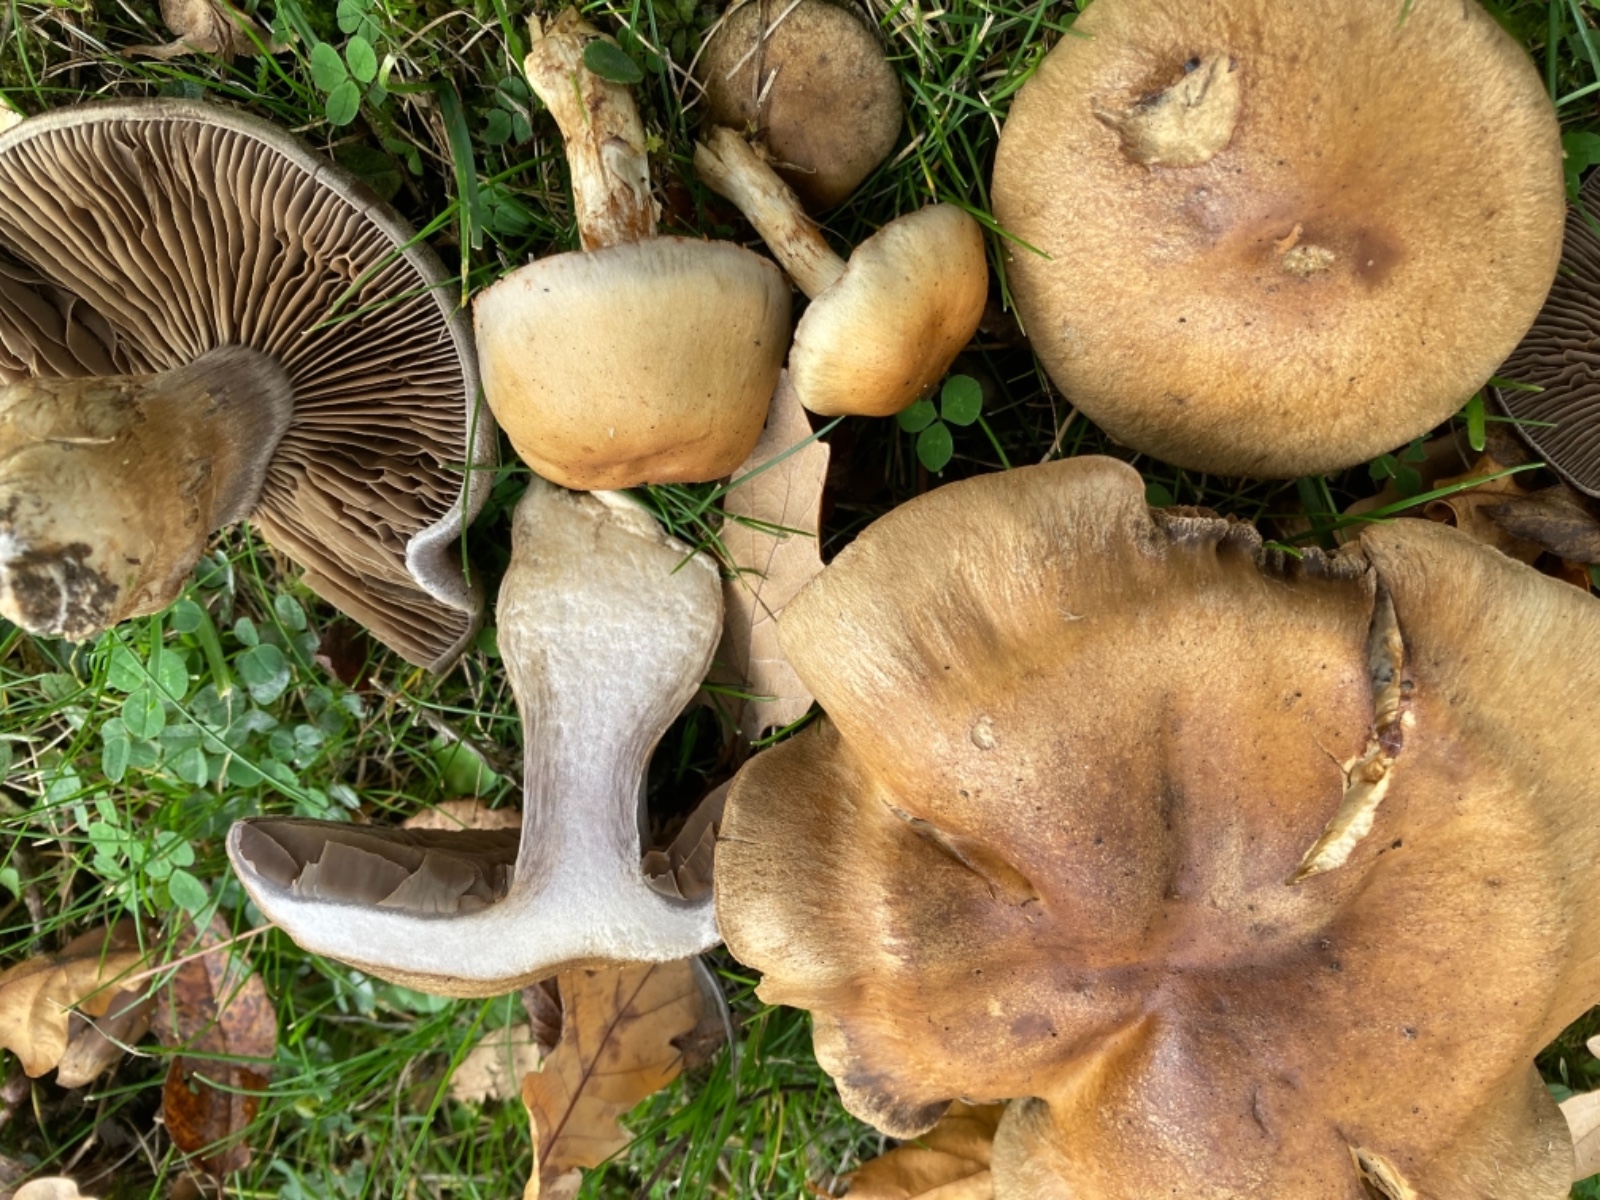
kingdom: Fungi
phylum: Basidiomycota
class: Agaricomycetes
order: Agaricales
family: Cortinariaceae
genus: Cortinarius
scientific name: Cortinarius
